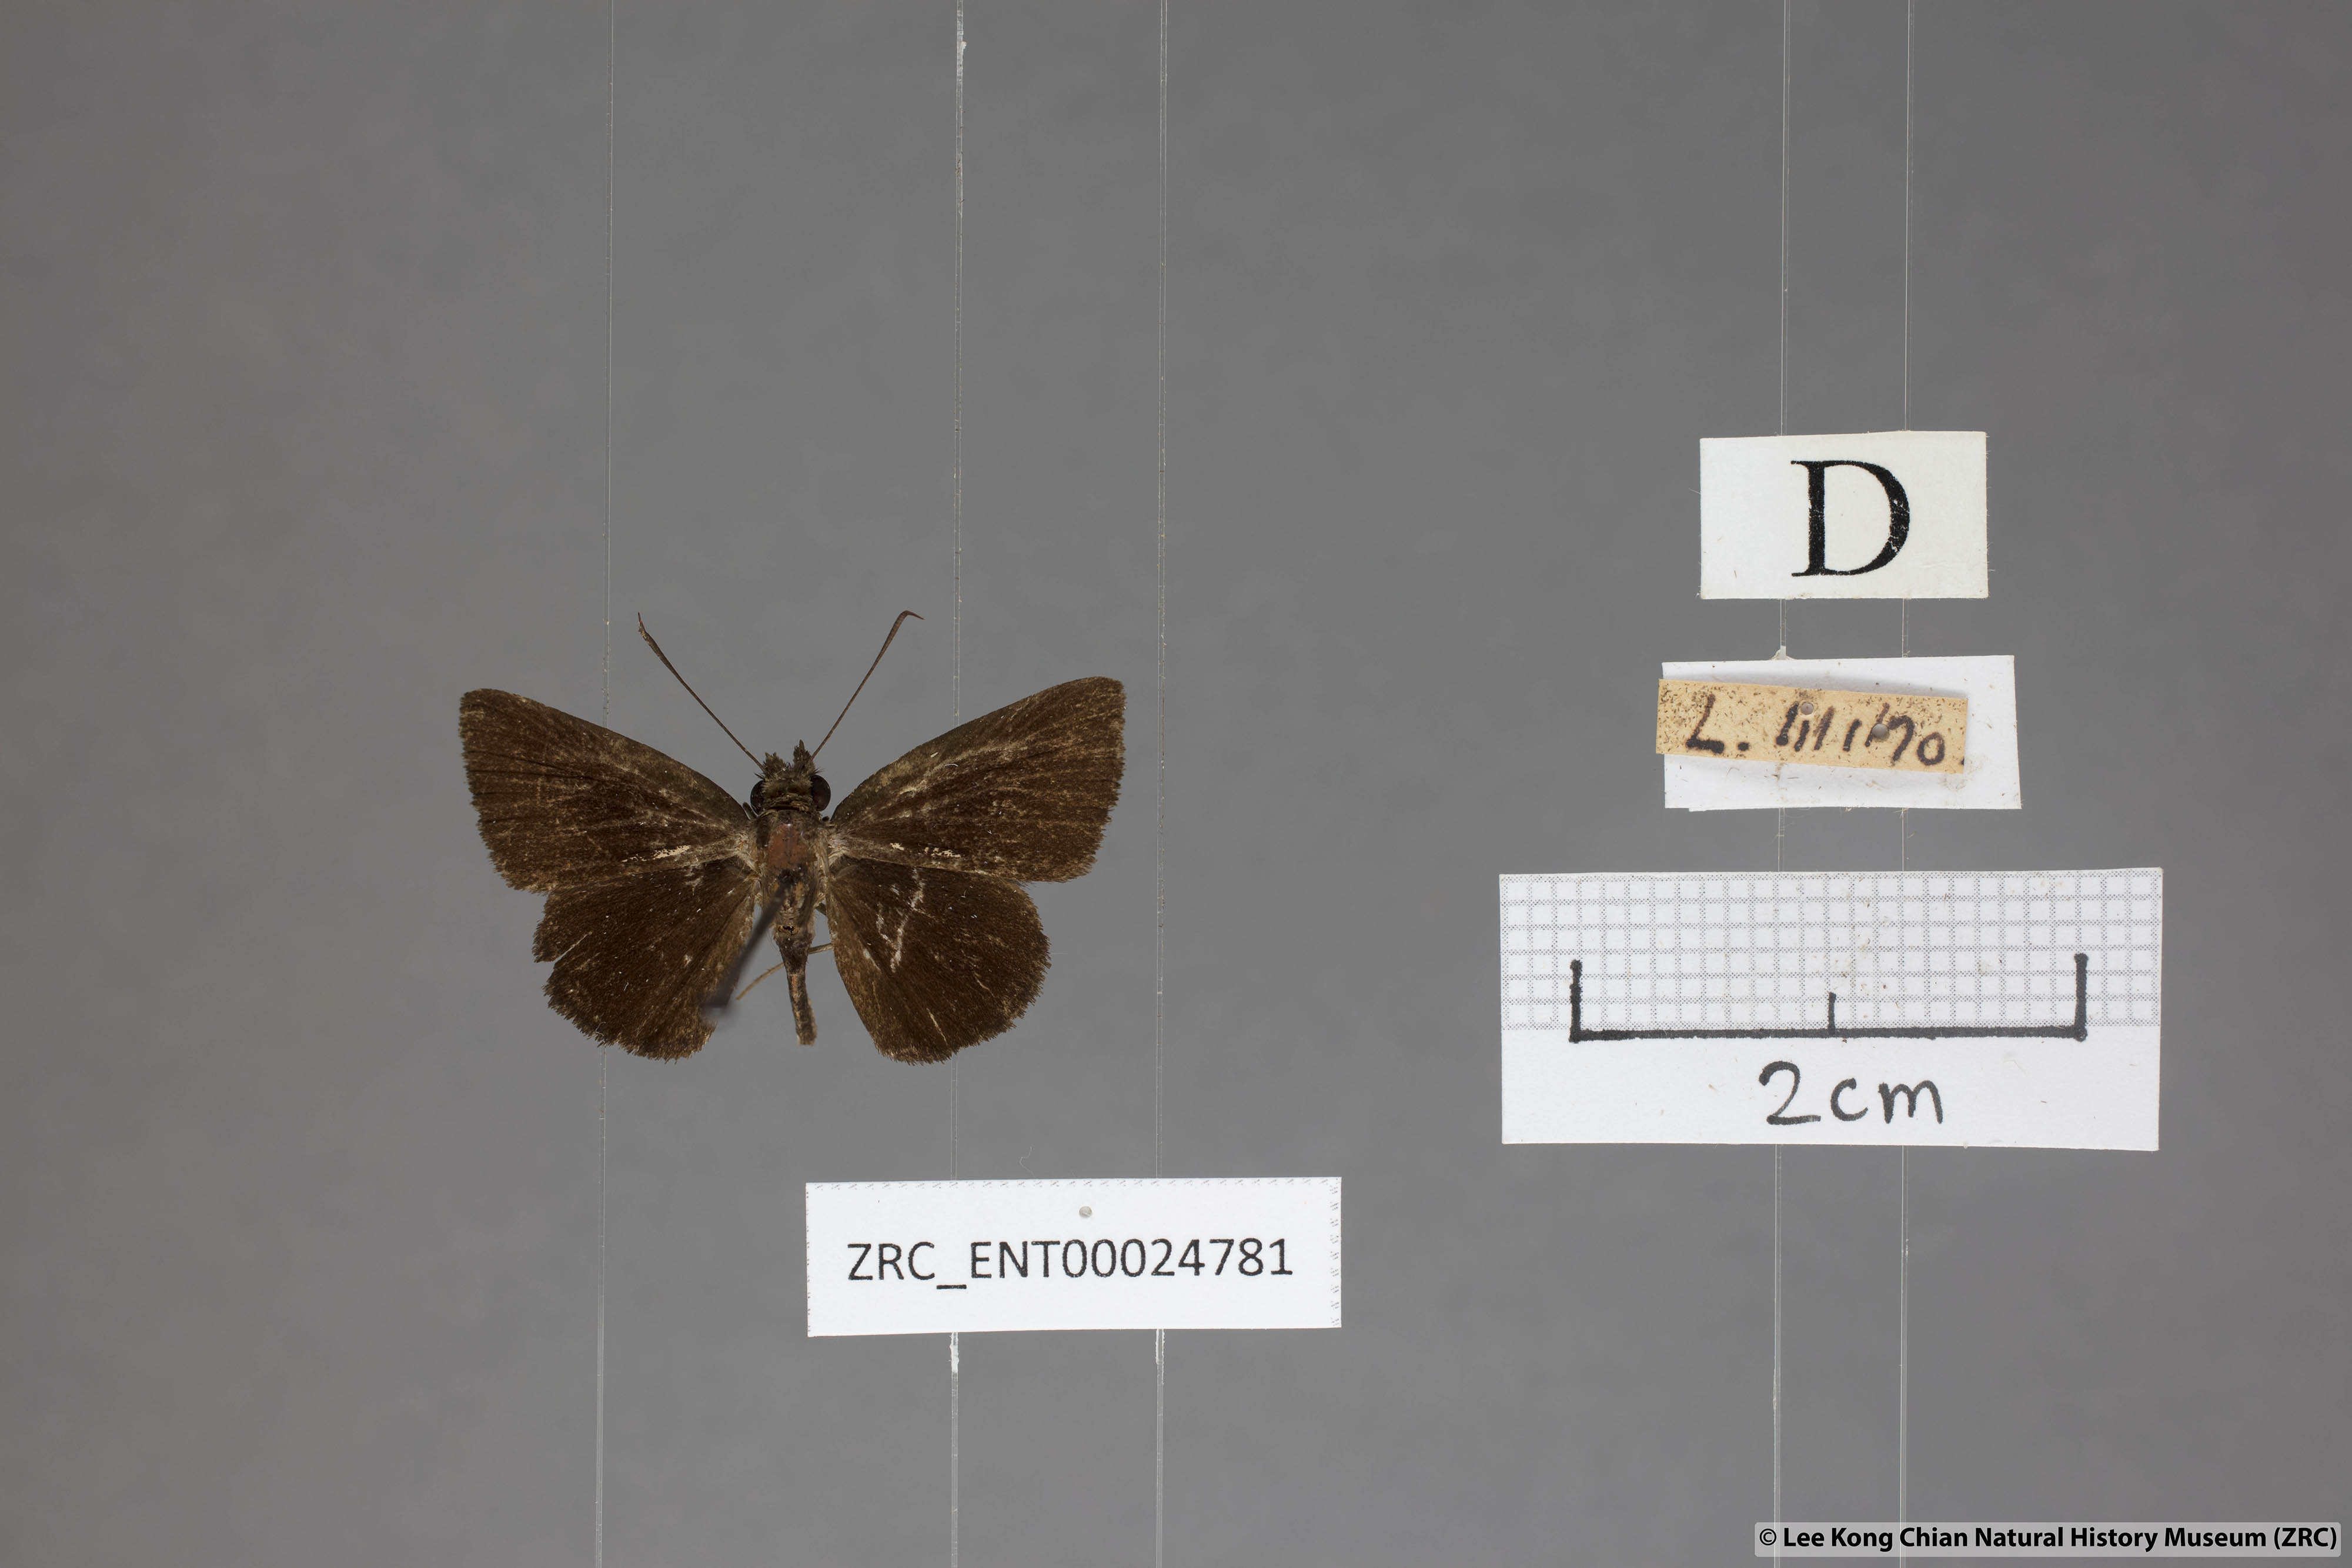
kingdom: Animalia
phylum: Arthropoda
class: Insecta
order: Lepidoptera
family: Hesperiidae
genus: Iambrix
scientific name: Iambrix
